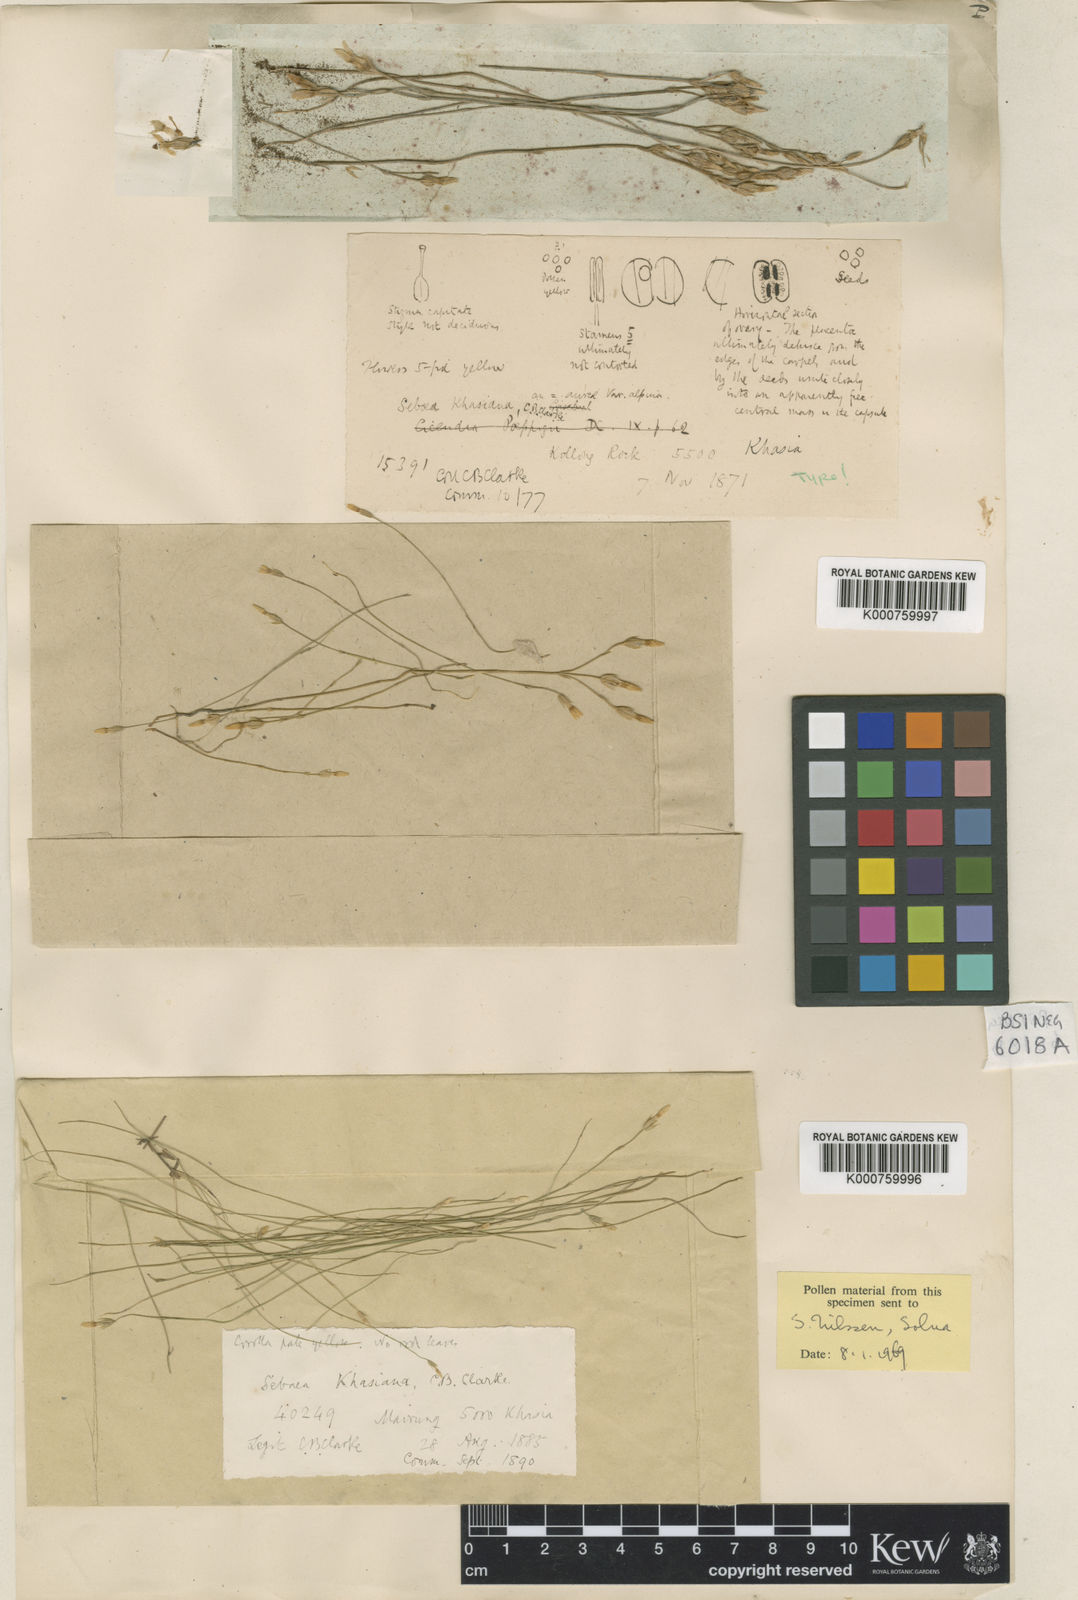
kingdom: Plantae
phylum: Tracheophyta
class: Magnoliopsida
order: Gentianales
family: Gentianaceae
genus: Sebaea
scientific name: Sebaea microphylla
